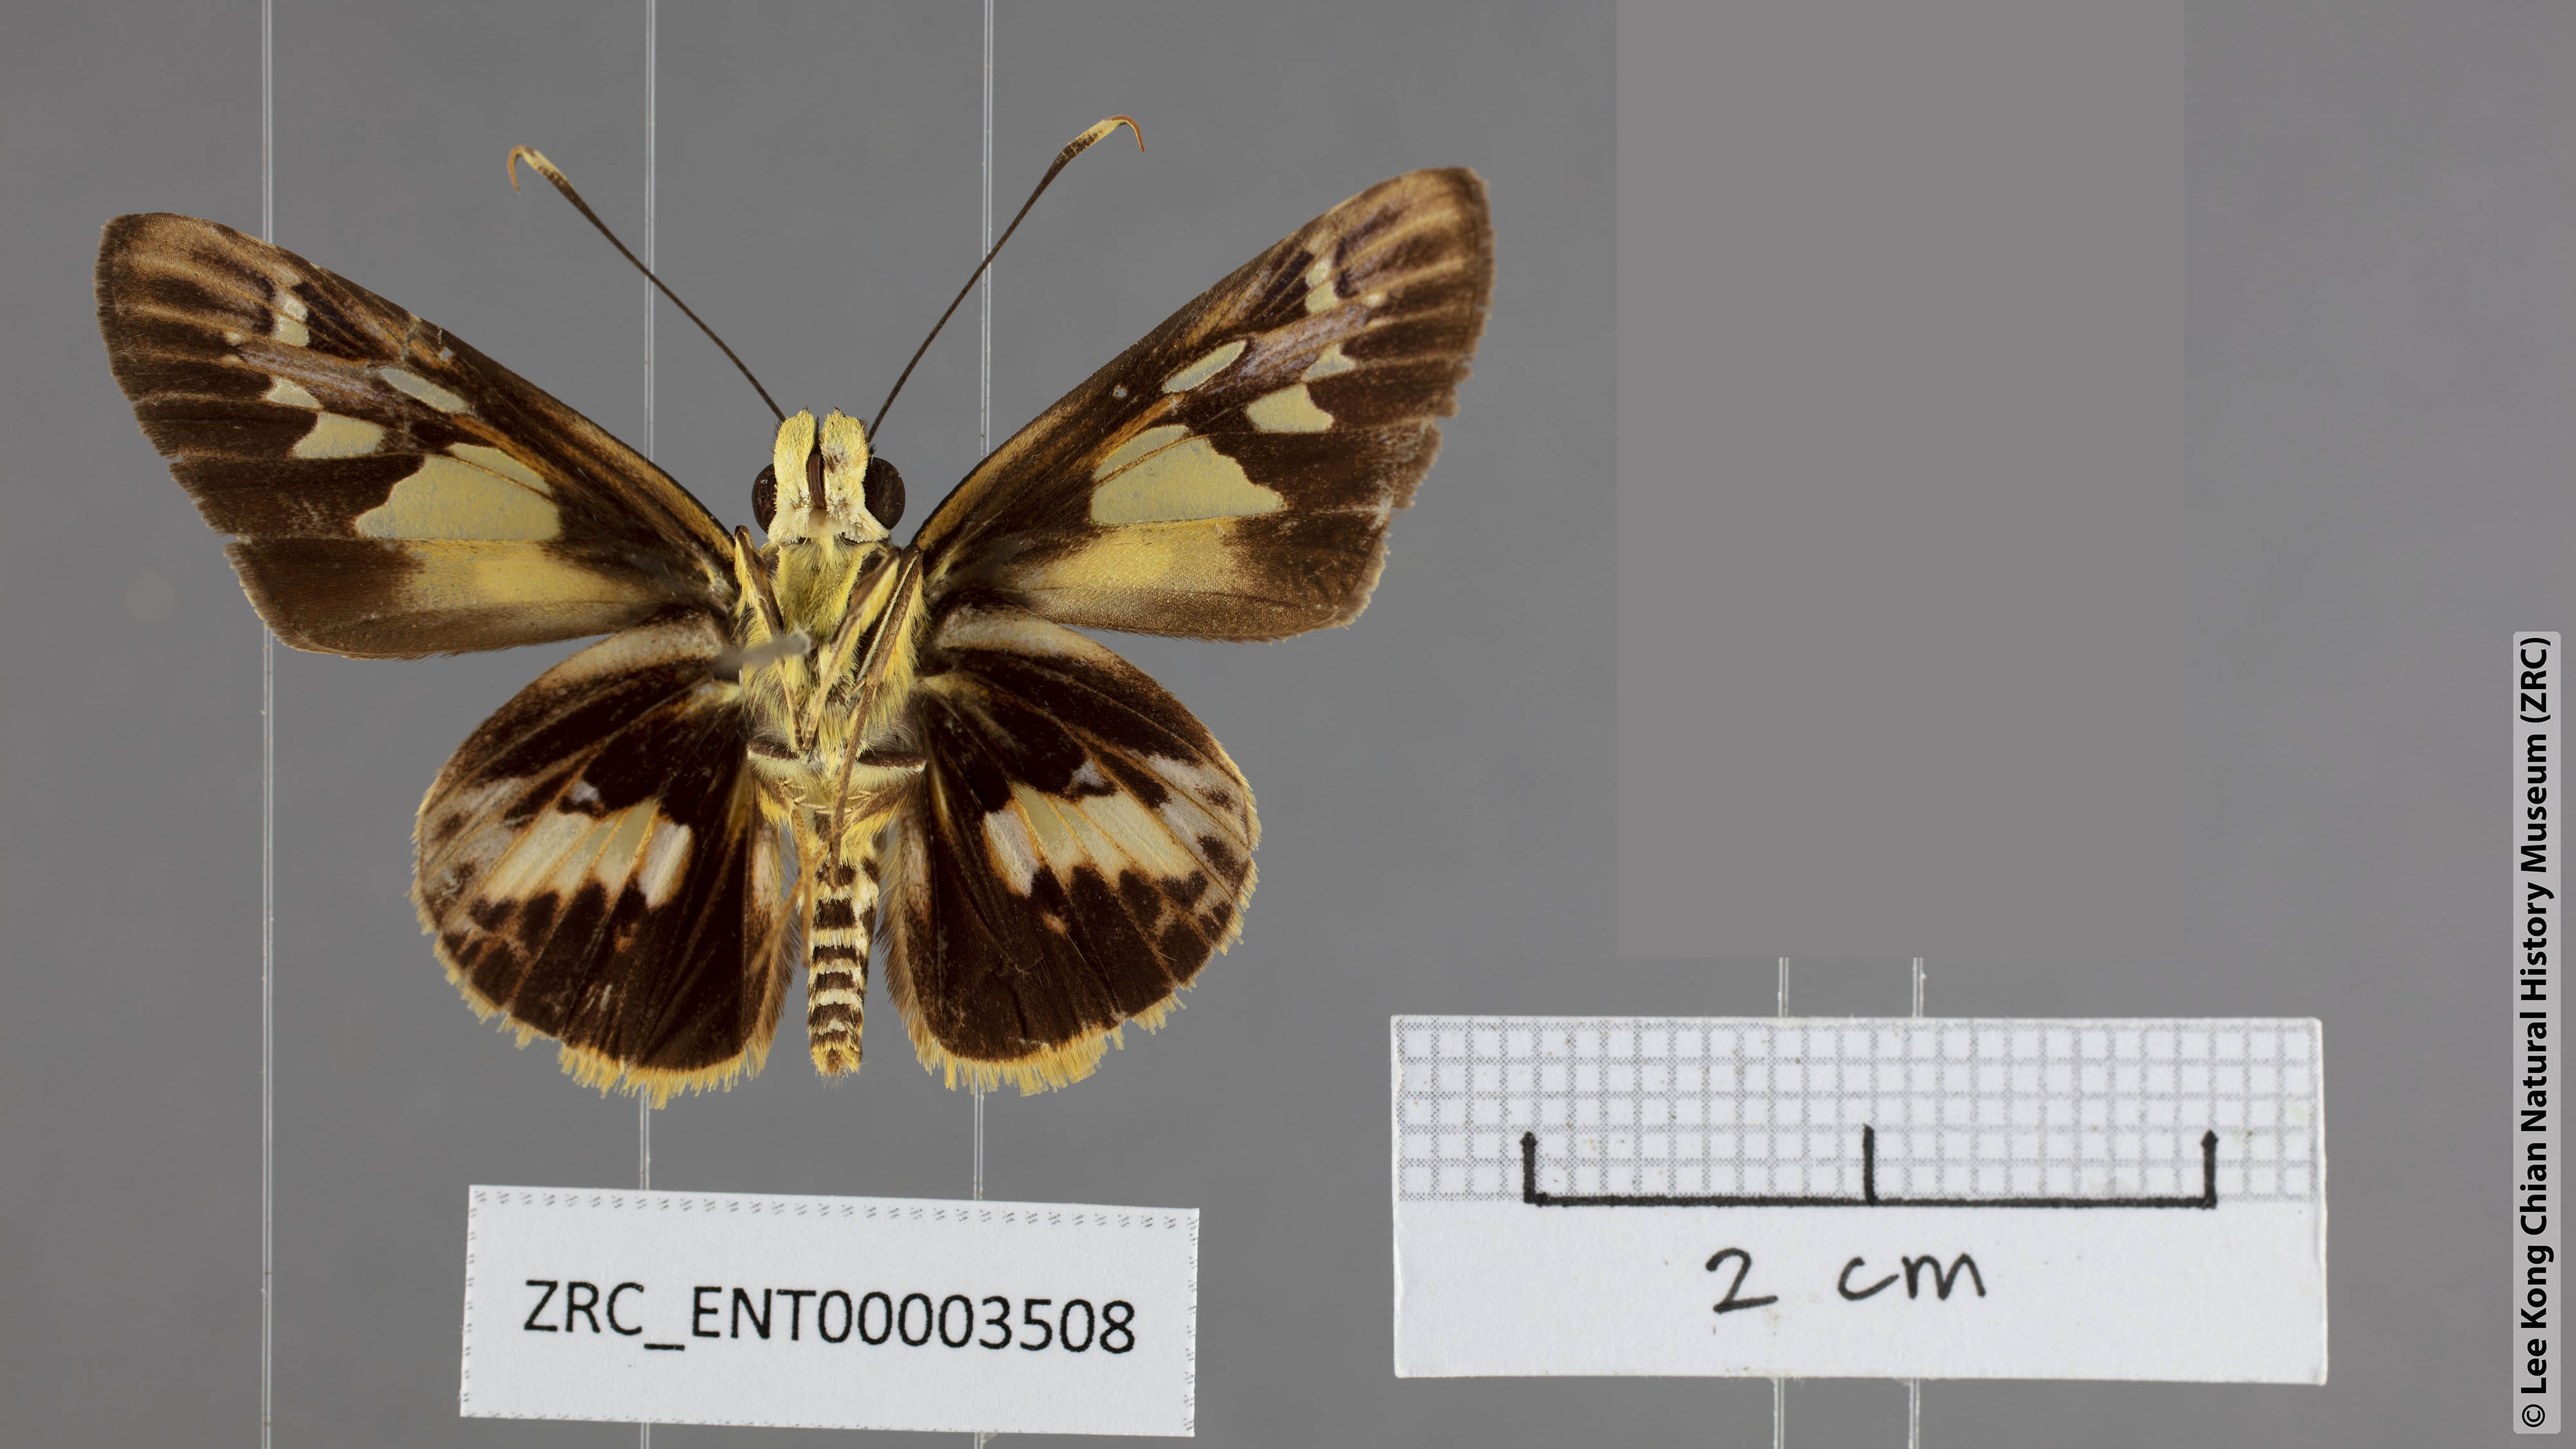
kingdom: Animalia
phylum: Arthropoda
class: Insecta
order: Lepidoptera
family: Hesperiidae
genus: Pyroneura
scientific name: Pyroneura klanga
